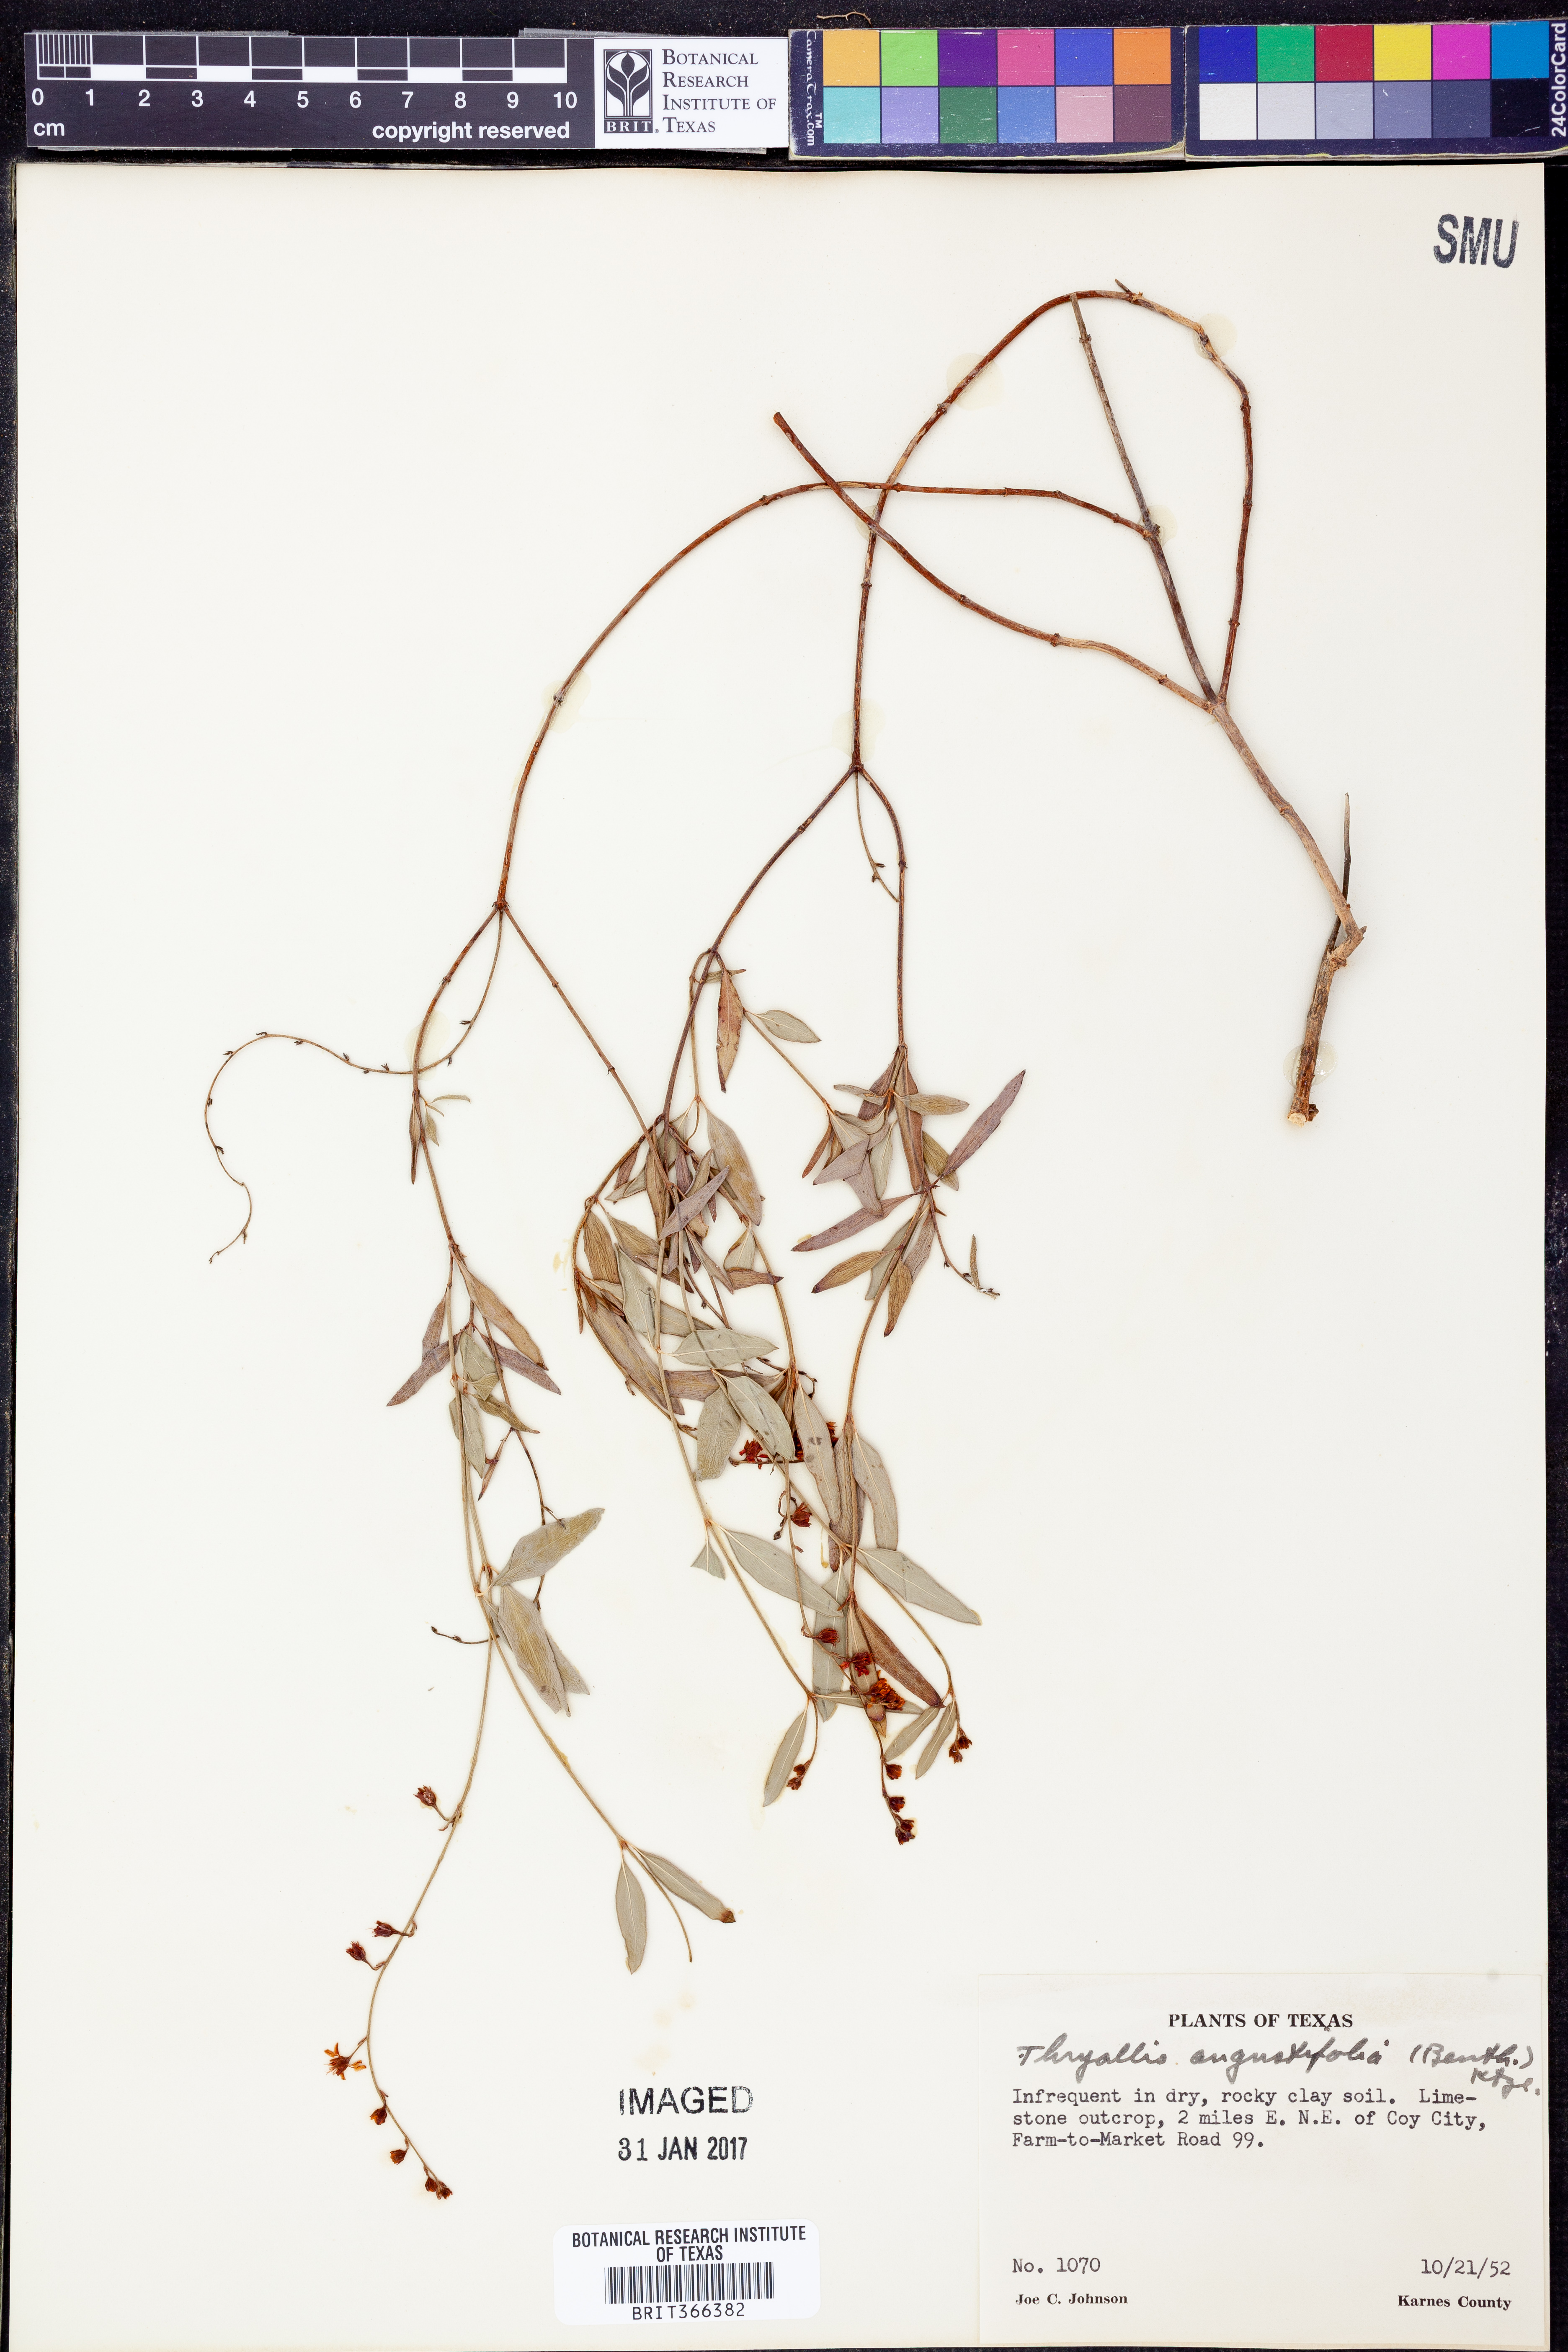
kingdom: Plantae
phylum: Tracheophyta
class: Magnoliopsida
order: Malpighiales
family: Malpighiaceae
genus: Galphimia
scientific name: Galphimia angustifolia
